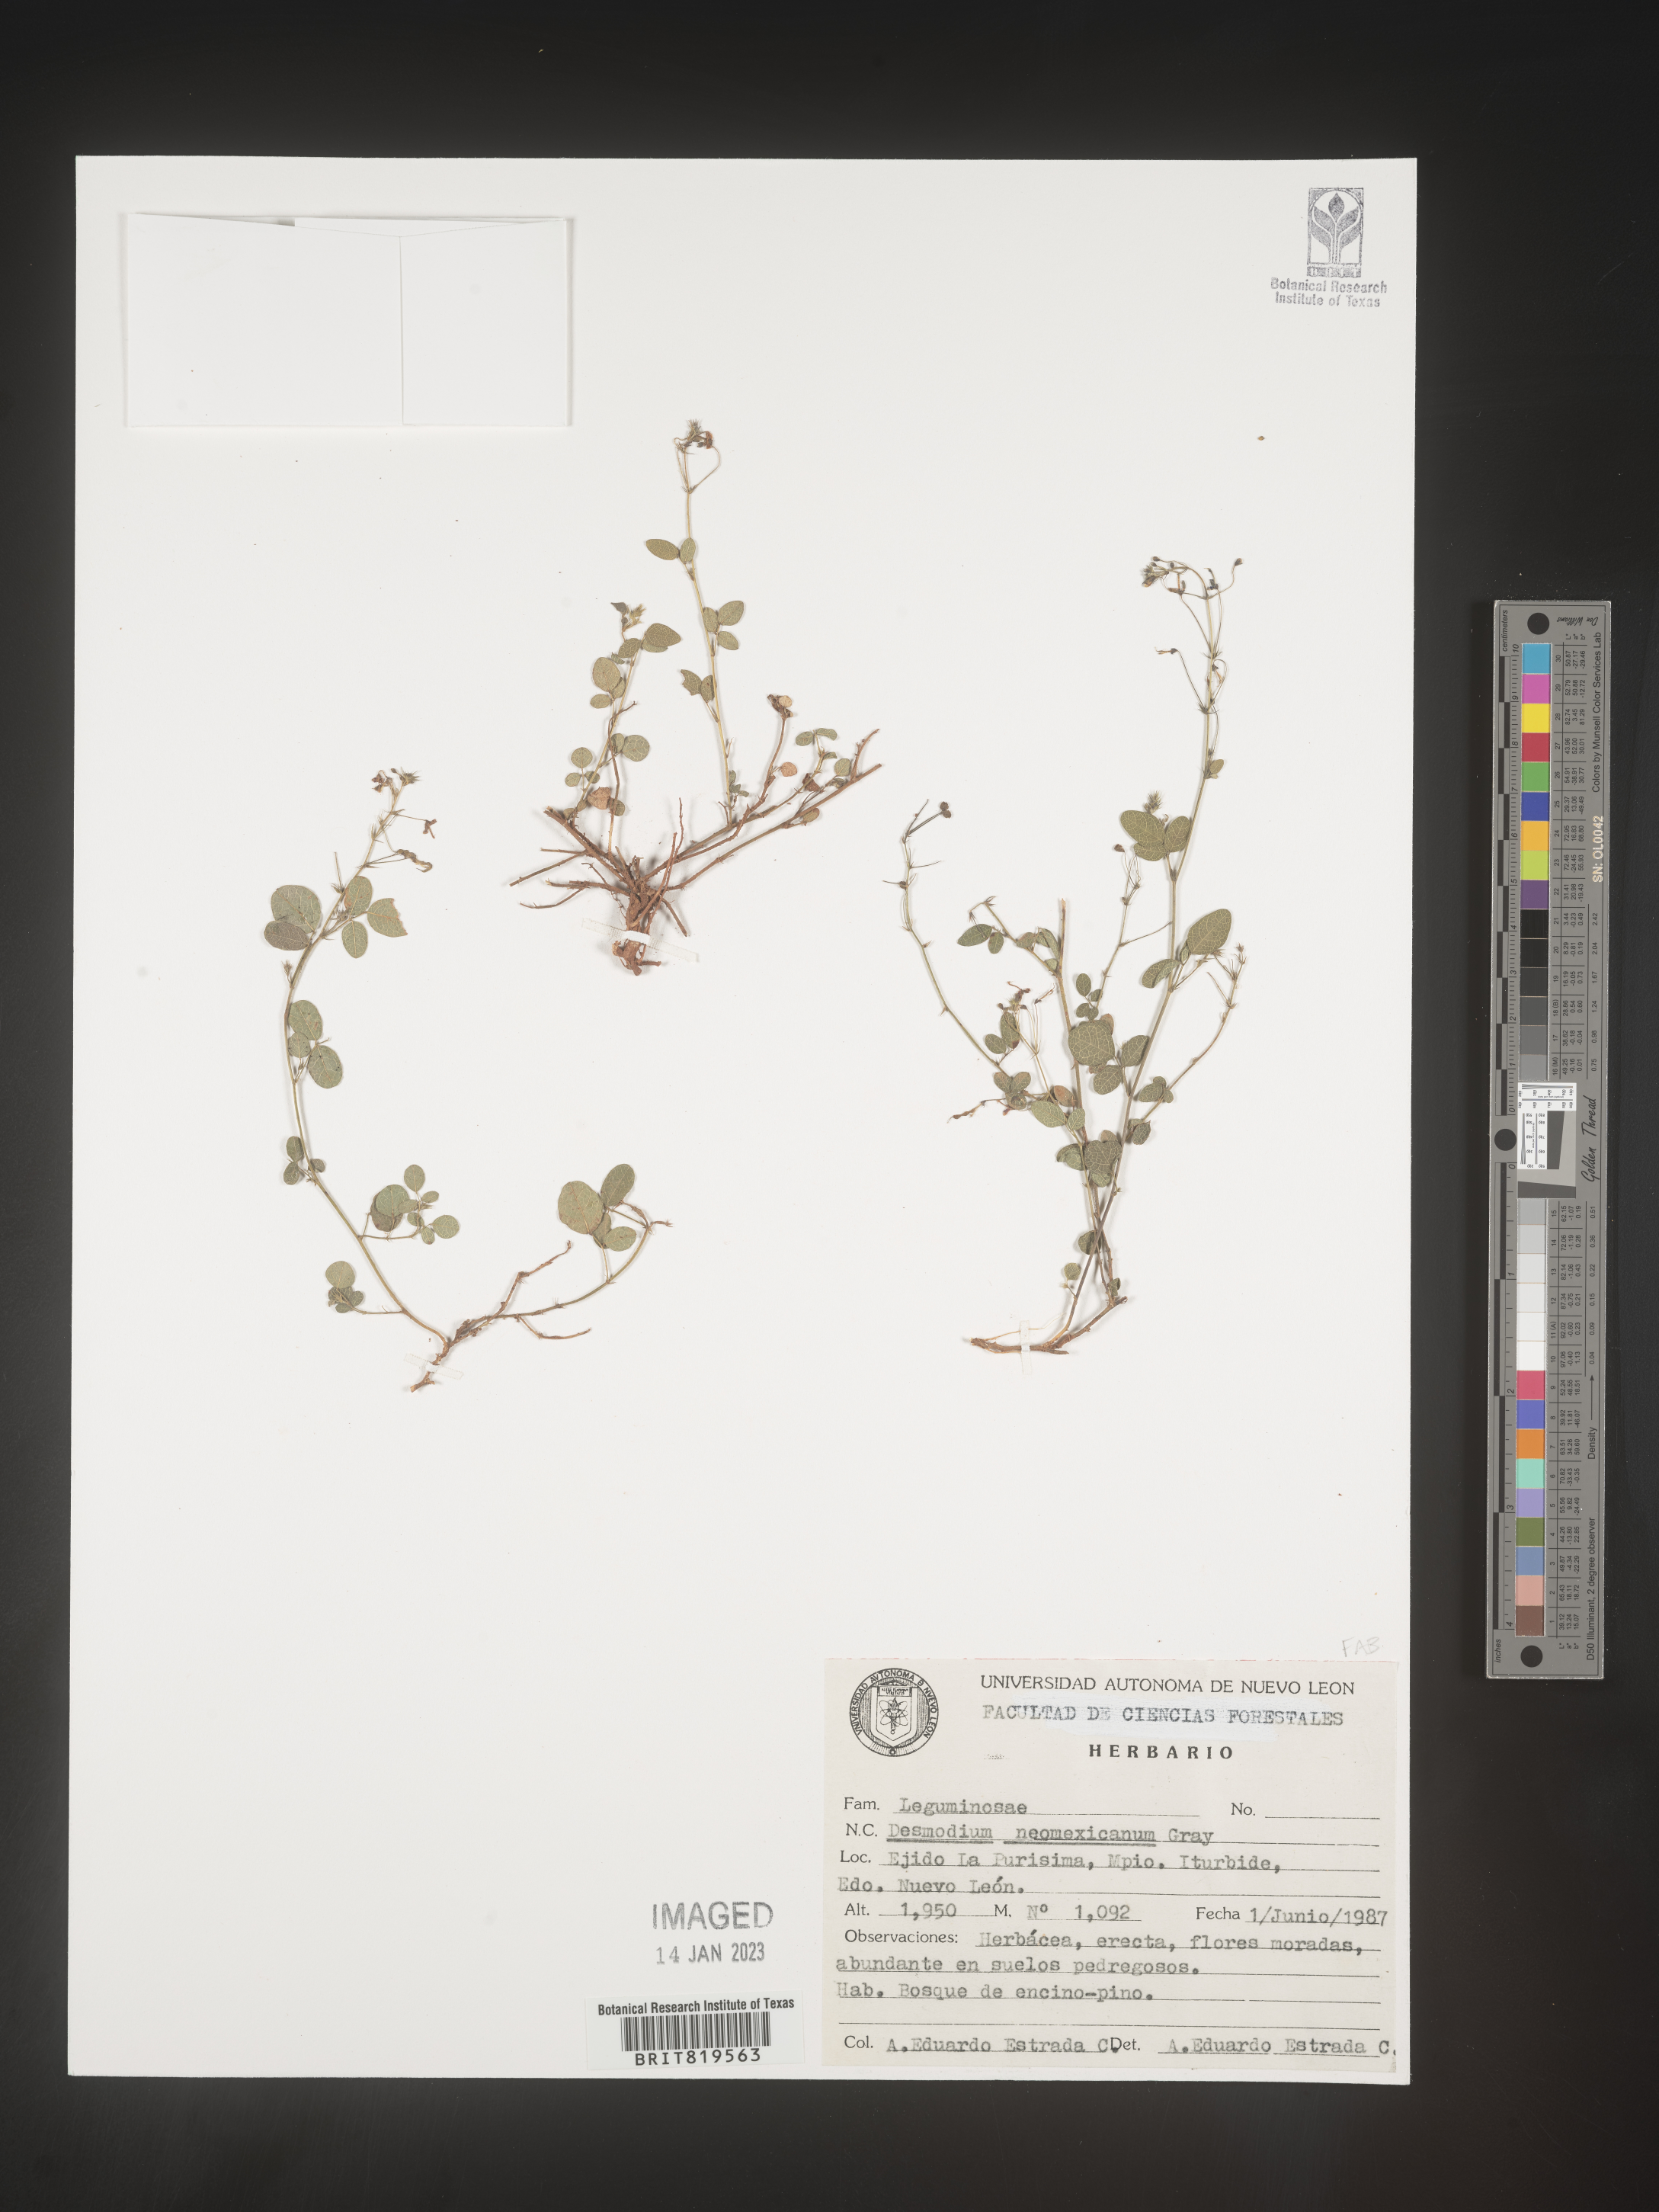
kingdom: Plantae
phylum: Tracheophyta
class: Magnoliopsida
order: Fabales
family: Fabaceae
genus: Desmodium
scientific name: Desmodium
